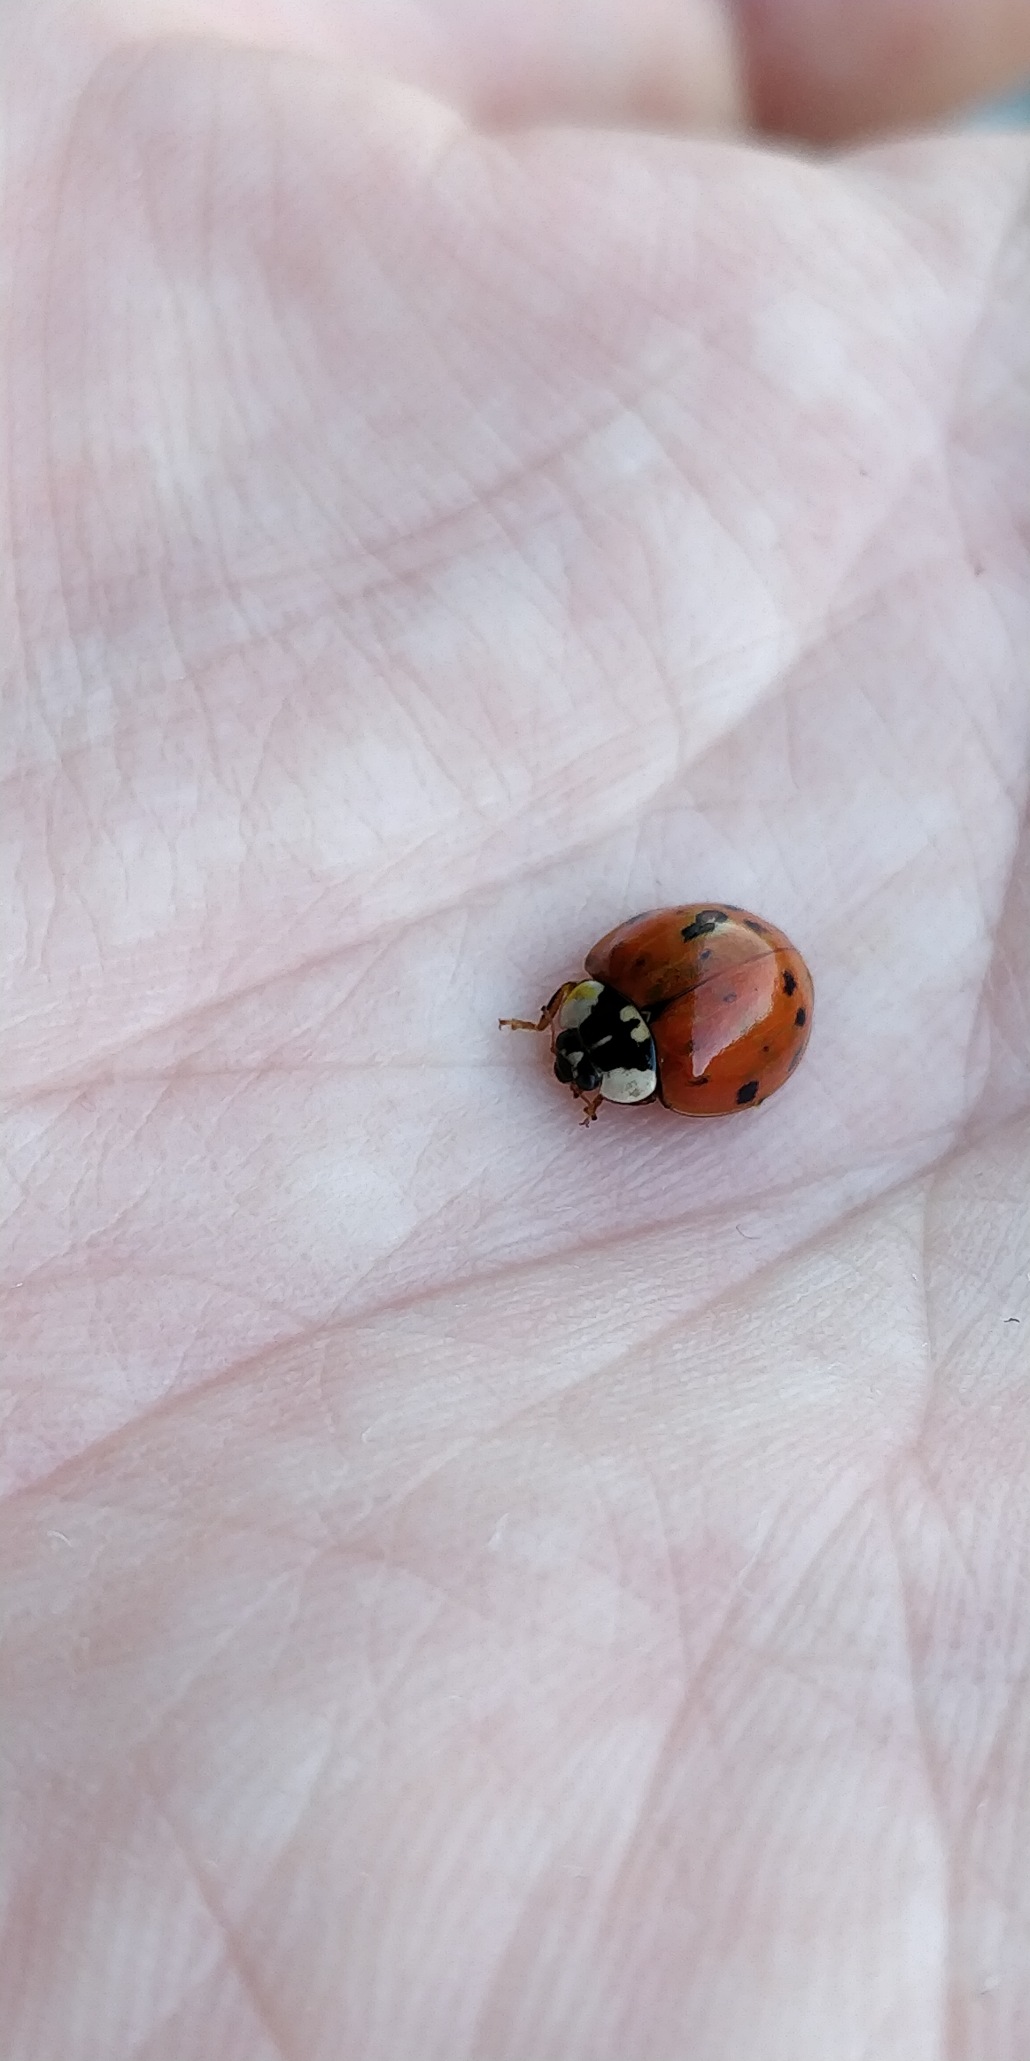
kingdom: Animalia
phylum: Arthropoda
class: Insecta
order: Coleoptera
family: Coccinellidae
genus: Harmonia
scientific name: Harmonia axyridis
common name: Harlekinmariehøne
